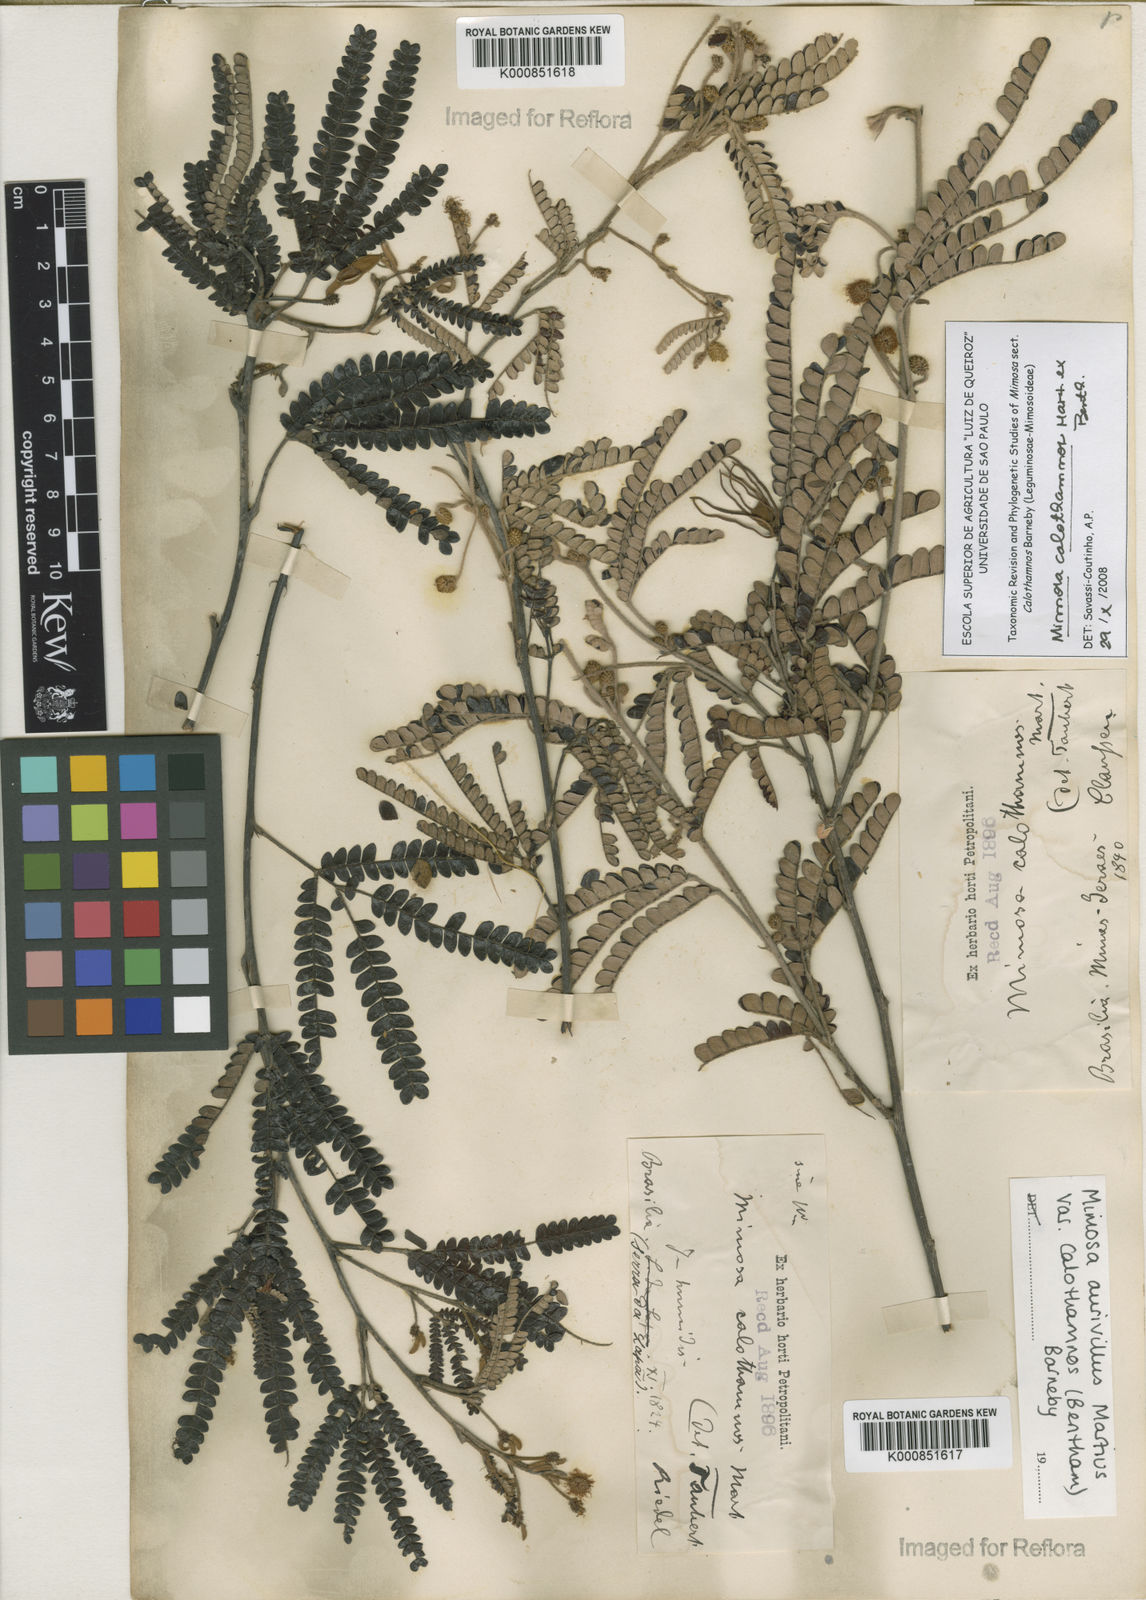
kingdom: Plantae
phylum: Tracheophyta
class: Magnoliopsida
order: Fabales
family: Fabaceae
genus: Mimosa
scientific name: Mimosa aurivillus
